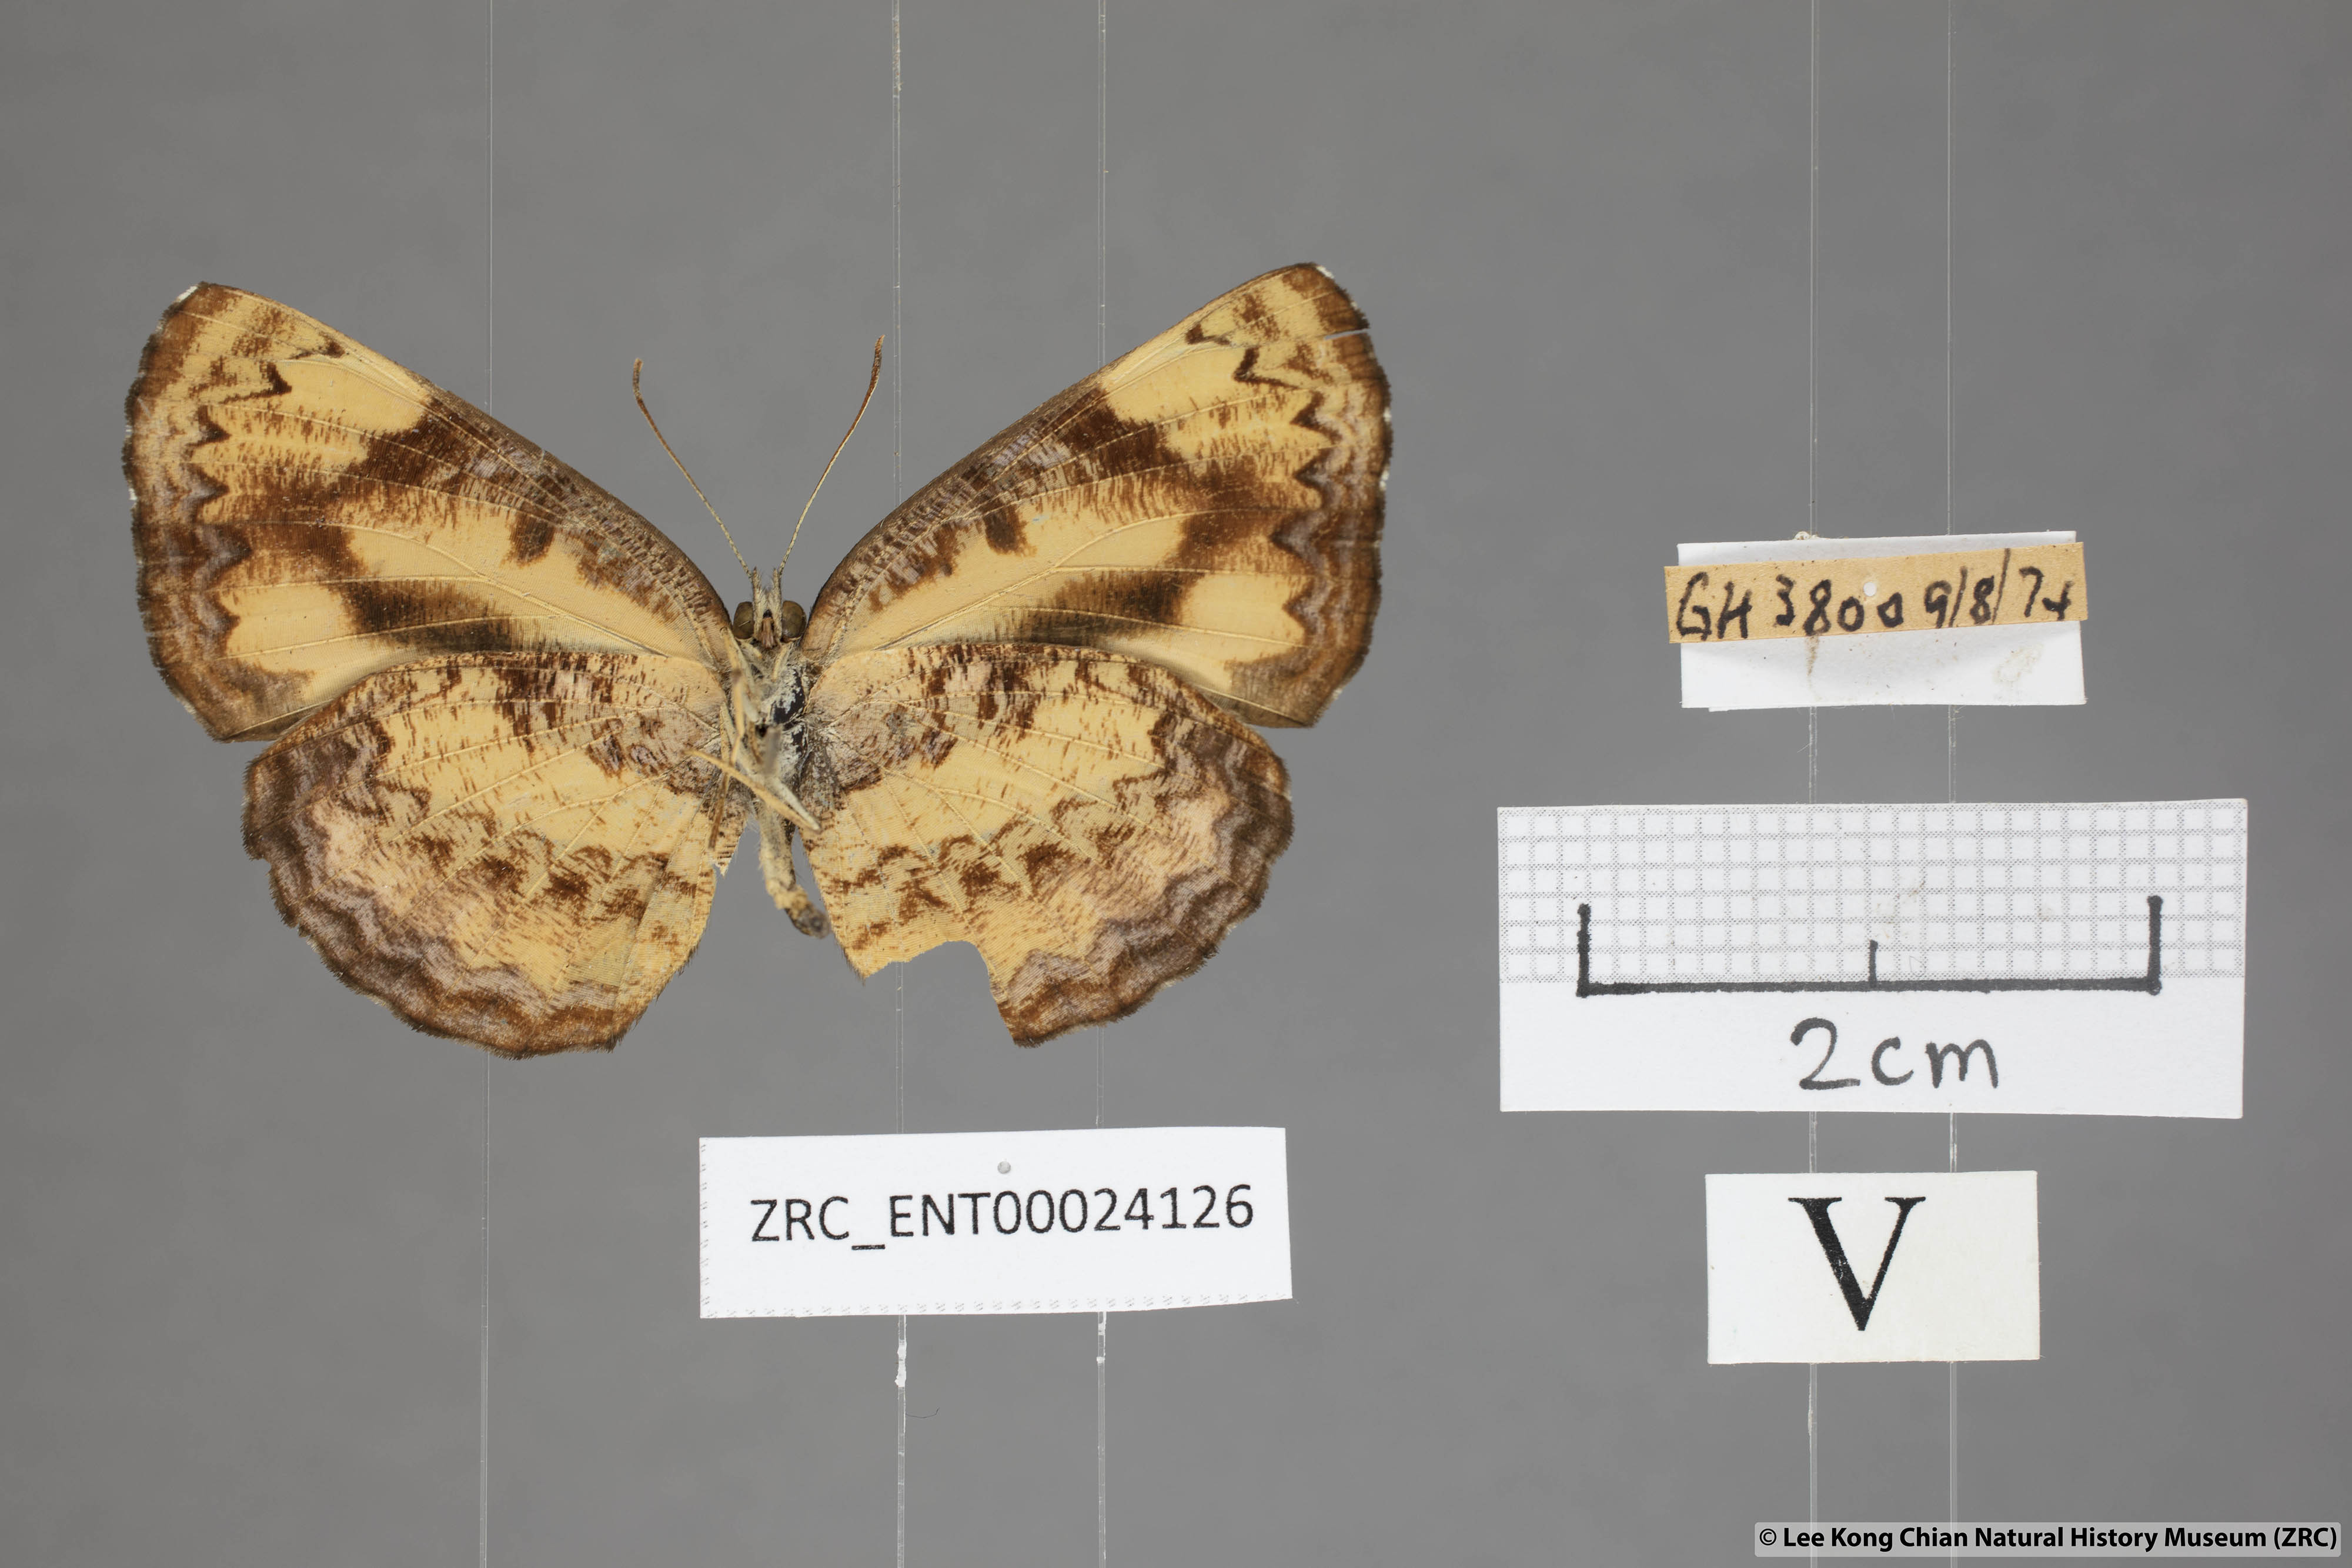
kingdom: Animalia
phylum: Arthropoda
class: Insecta
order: Lepidoptera
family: Nymphalidae
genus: Pantoporia
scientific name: Pantoporia hordonia
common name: Common lascar
